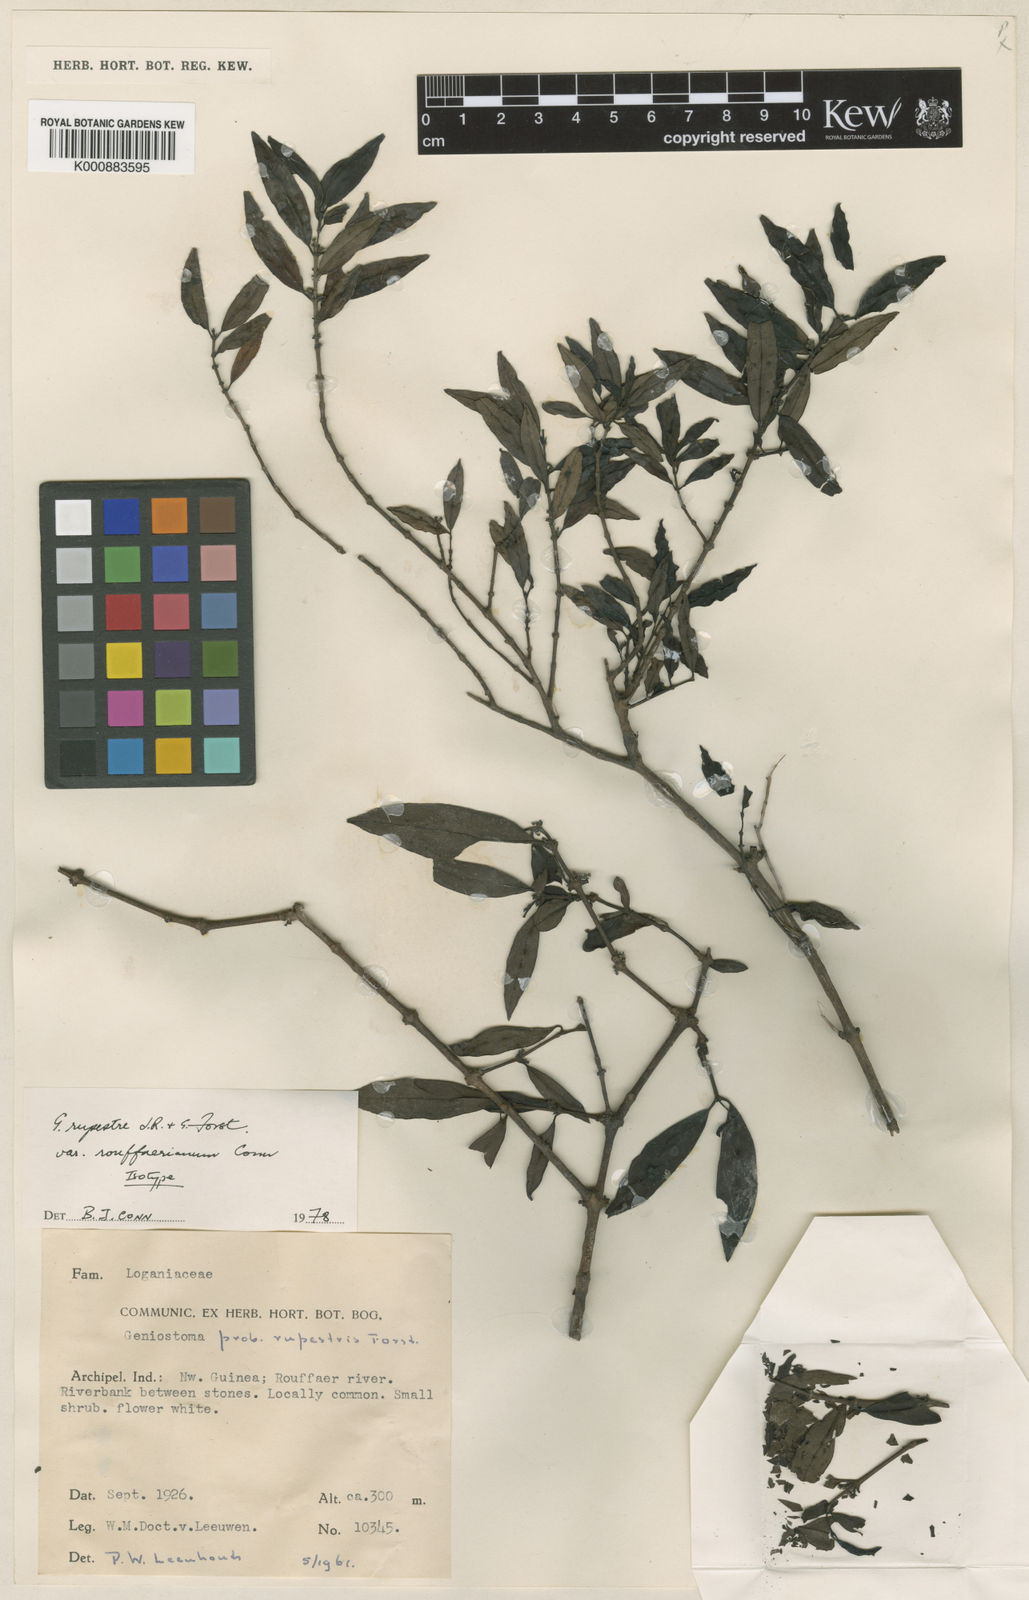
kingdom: Plantae
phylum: Tracheophyta
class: Magnoliopsida
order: Gentianales
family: Loganiaceae
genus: Geniostoma
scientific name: Geniostoma rupestre
